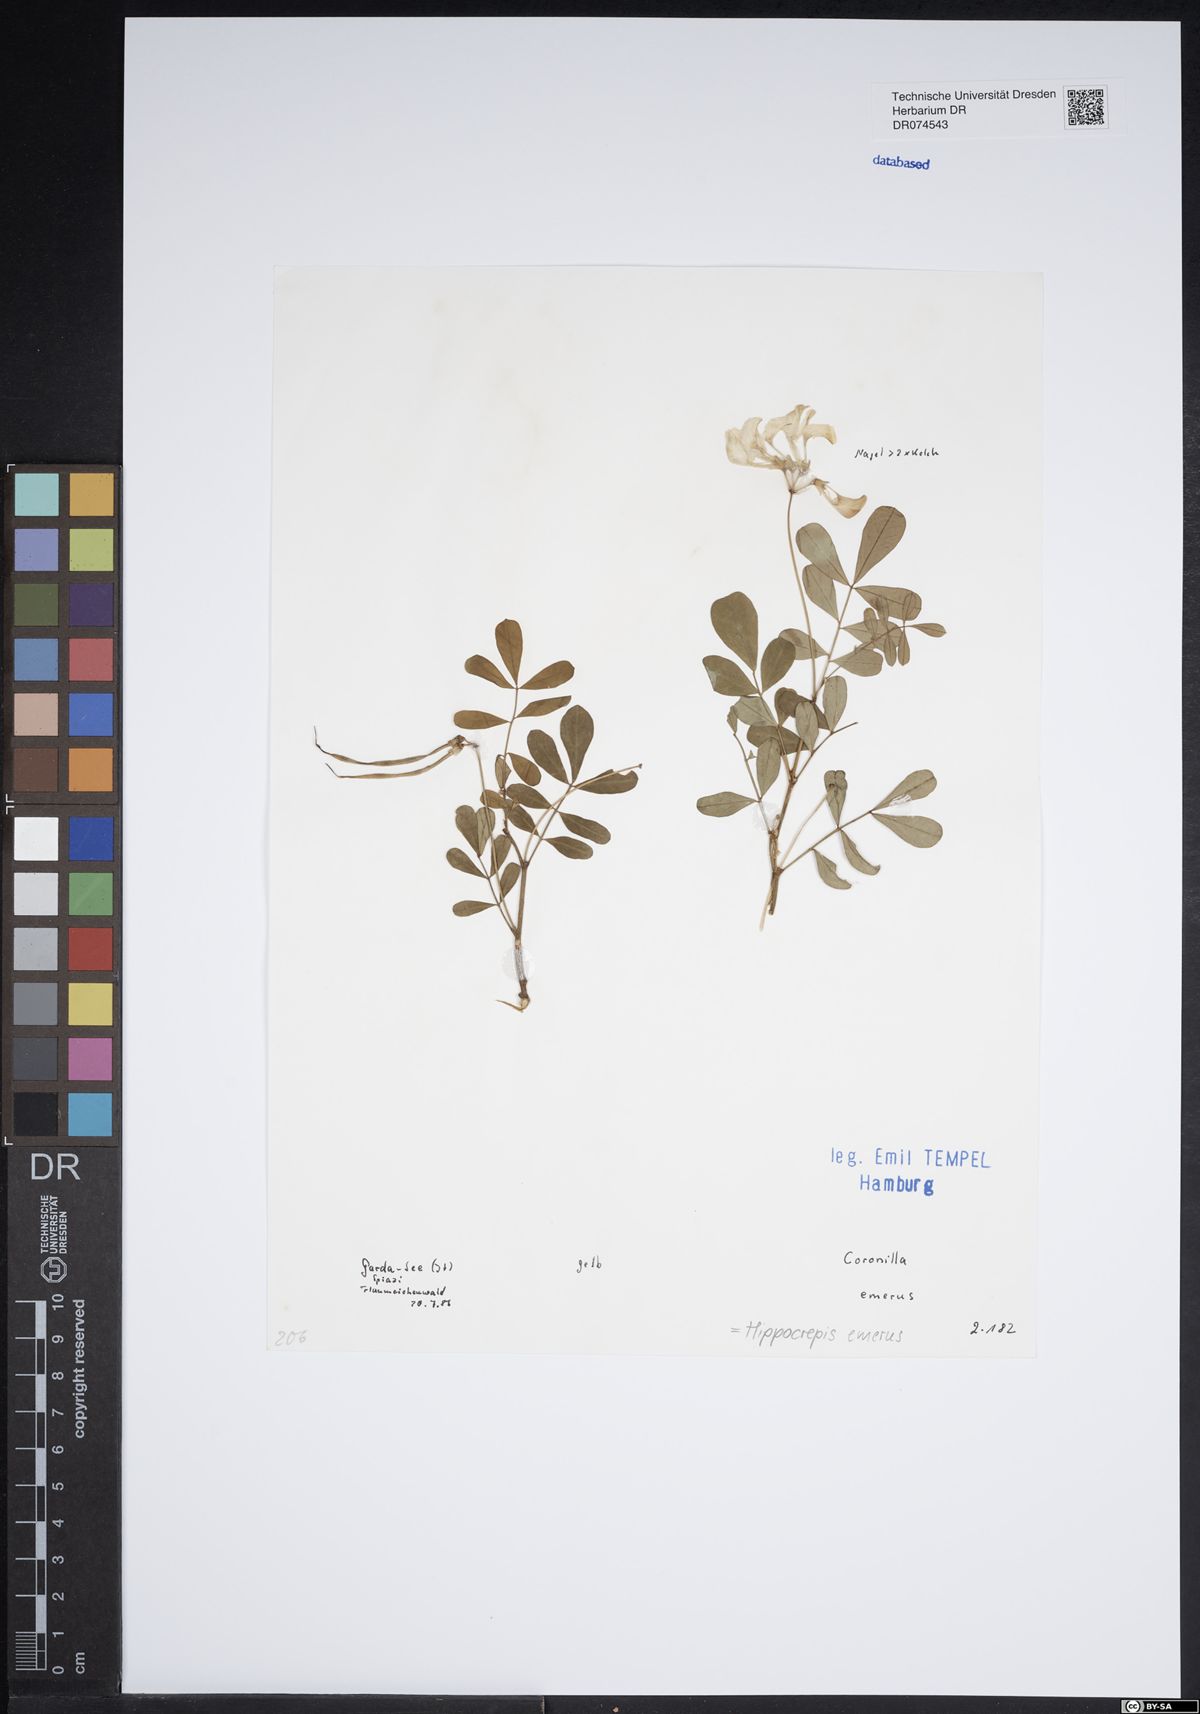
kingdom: Plantae
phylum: Tracheophyta
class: Magnoliopsida
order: Fabales
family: Fabaceae
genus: Hippocrepis
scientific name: Hippocrepis emerus
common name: Scorpion senna
